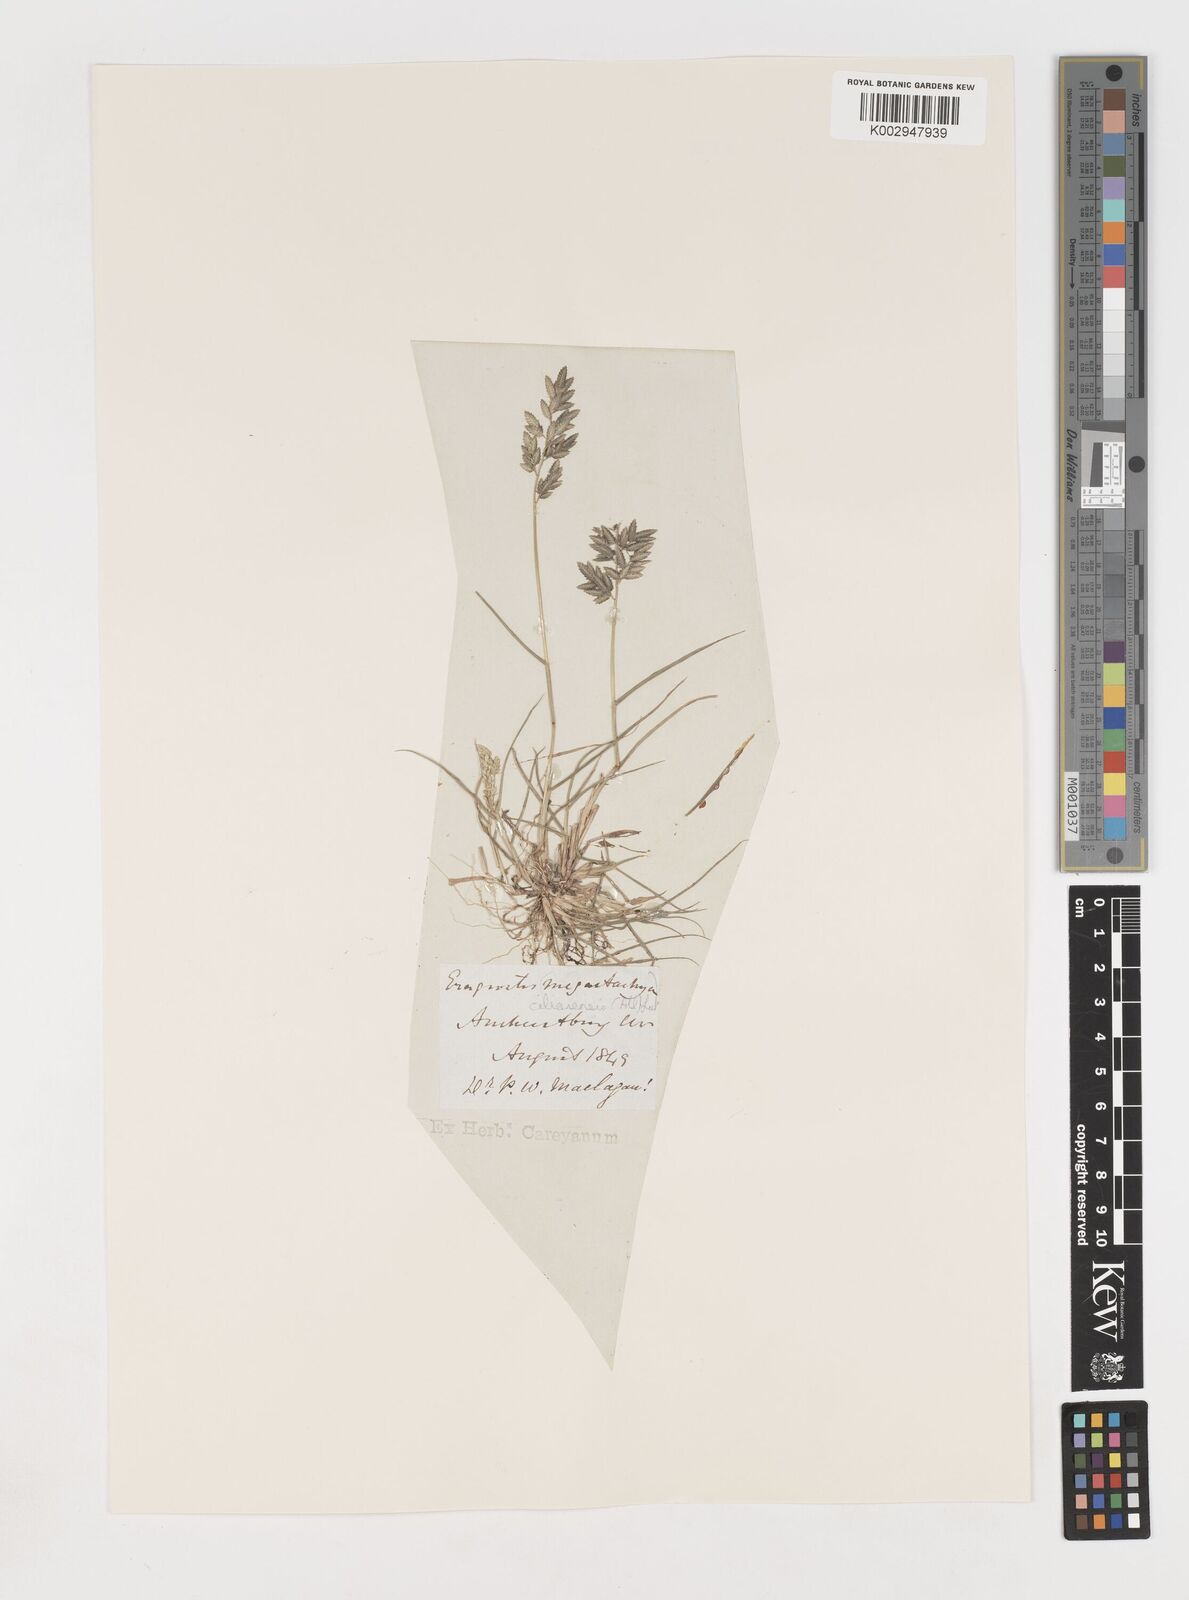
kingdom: Plantae
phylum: Tracheophyta
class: Liliopsida
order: Poales
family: Poaceae
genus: Eragrostis
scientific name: Eragrostis
